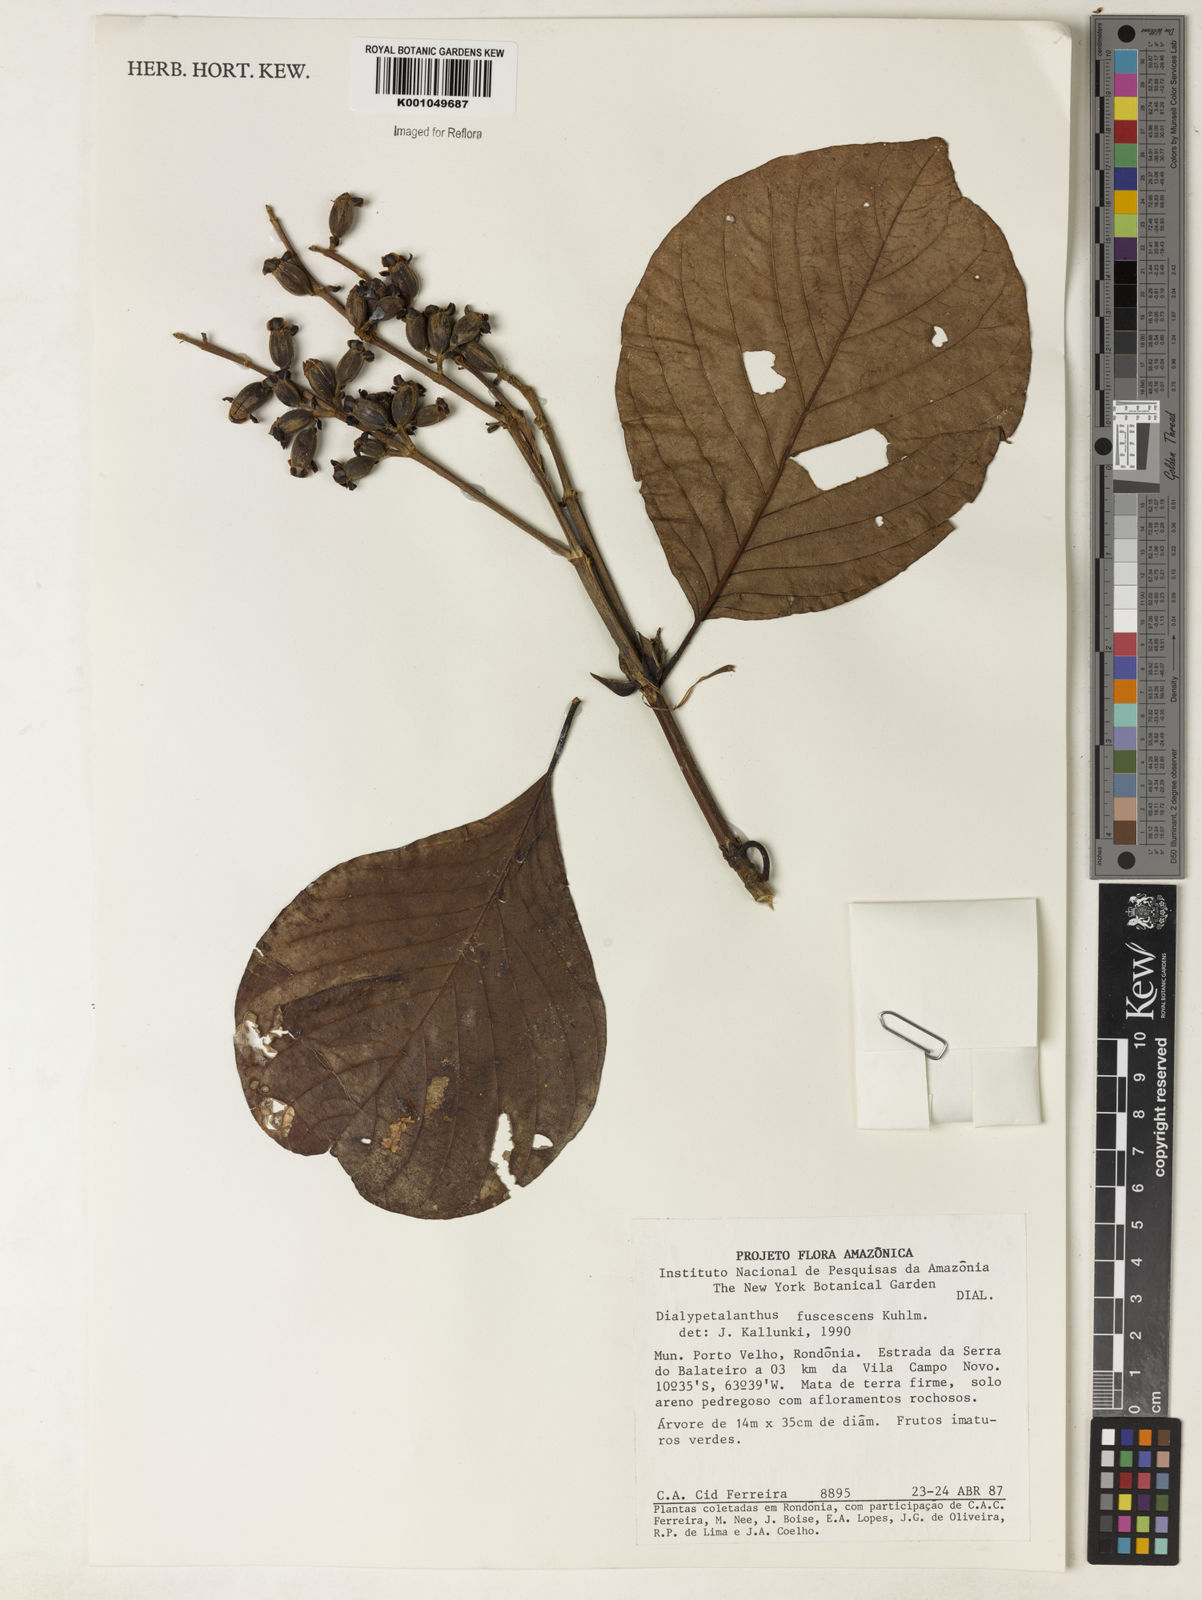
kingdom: Plantae
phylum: Tracheophyta
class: Magnoliopsida
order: Gentianales
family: Rubiaceae
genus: Dialypetalanthus
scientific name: Dialypetalanthus fuscescens
